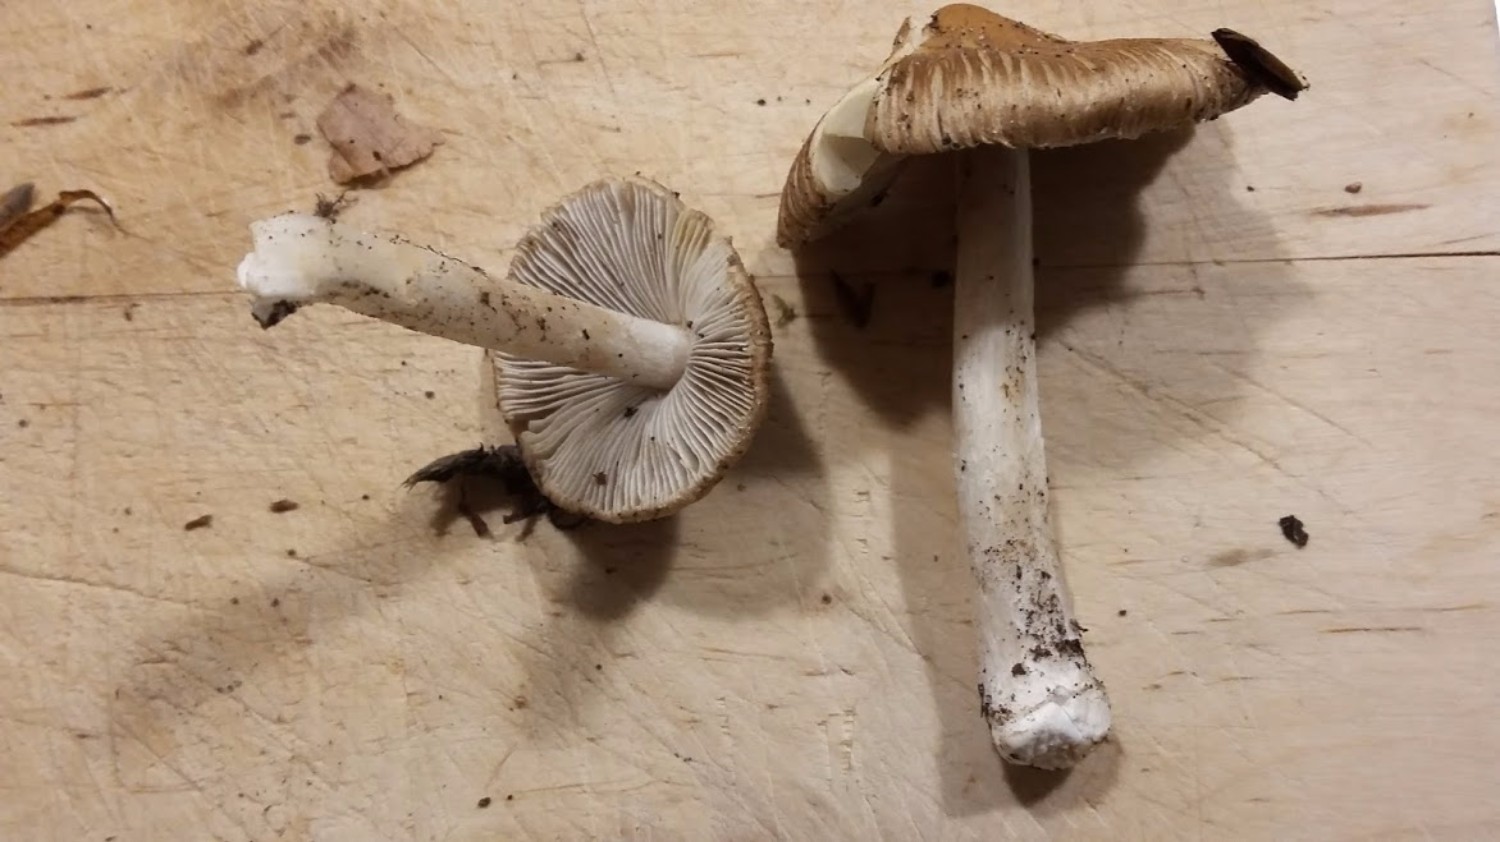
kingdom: Fungi
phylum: Basidiomycota
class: Agaricomycetes
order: Agaricales
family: Inocybaceae
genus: Inocybe
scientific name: Inocybe
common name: trævlhat
